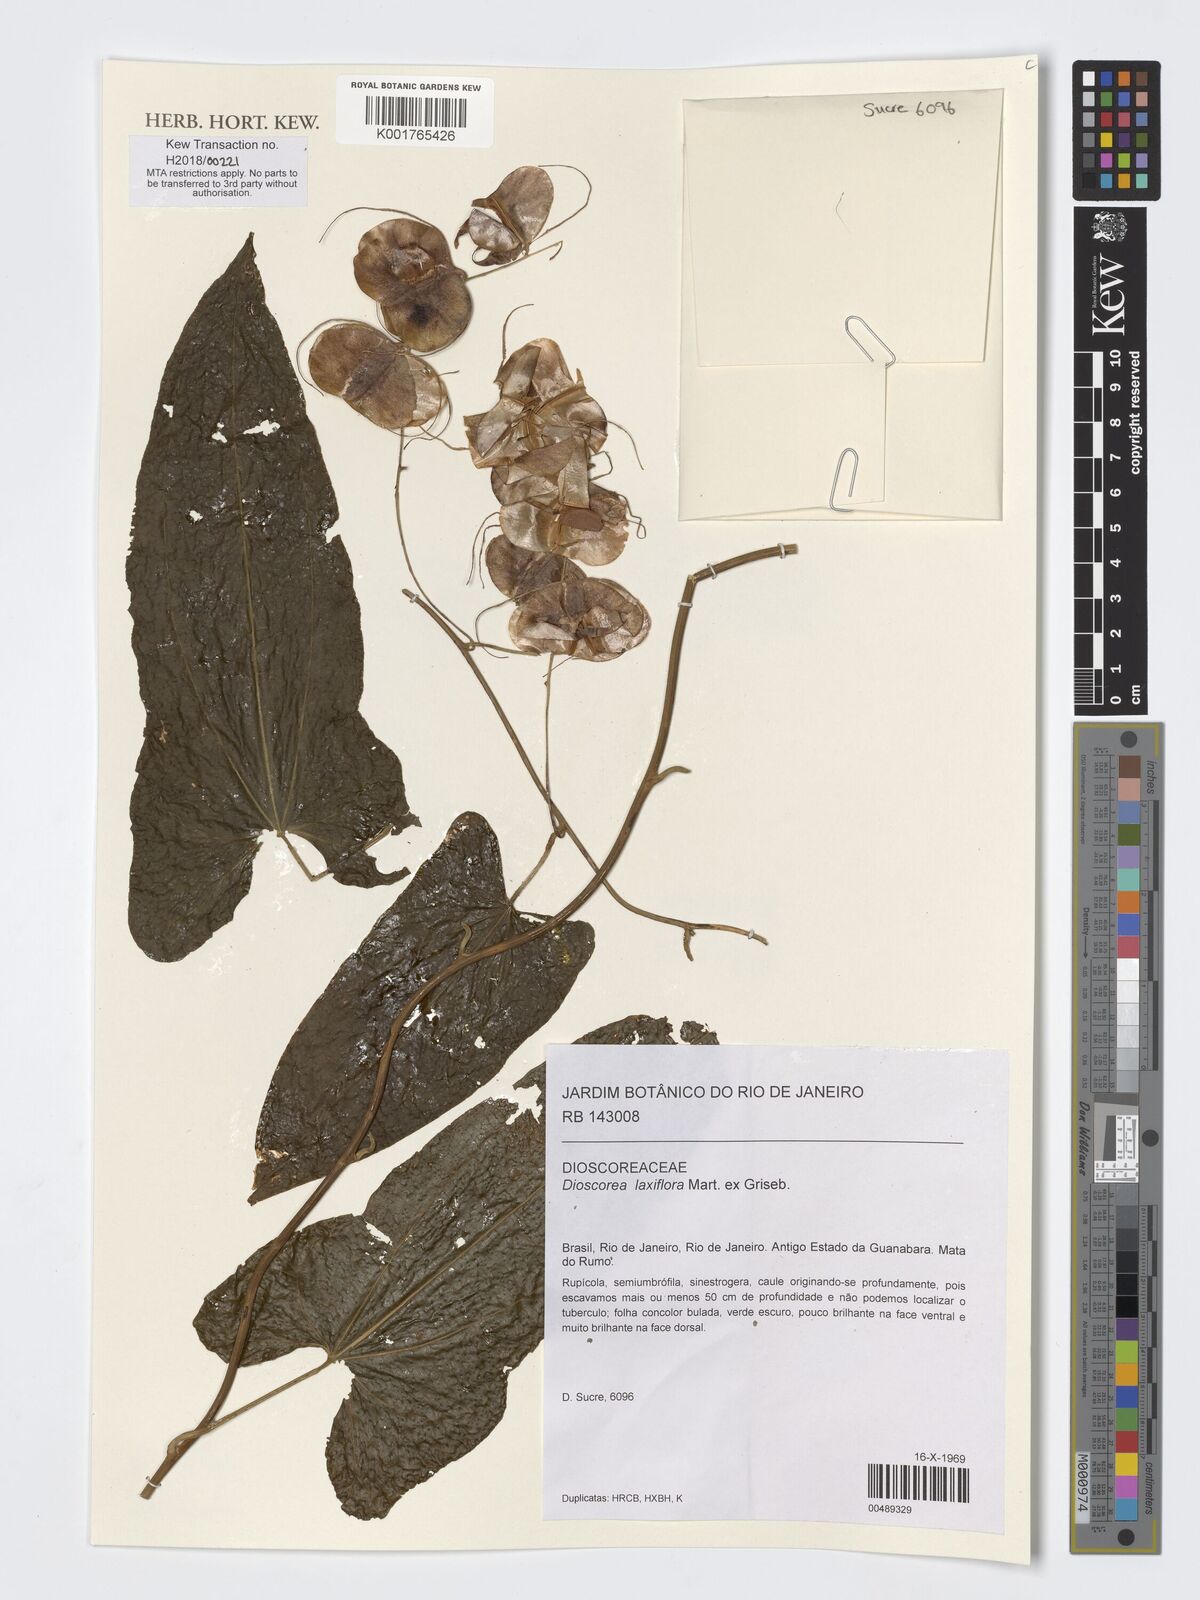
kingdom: Plantae
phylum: Tracheophyta
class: Liliopsida
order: Dioscoreales
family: Dioscoreaceae
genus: Dioscorea
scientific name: Dioscorea laxiflora
